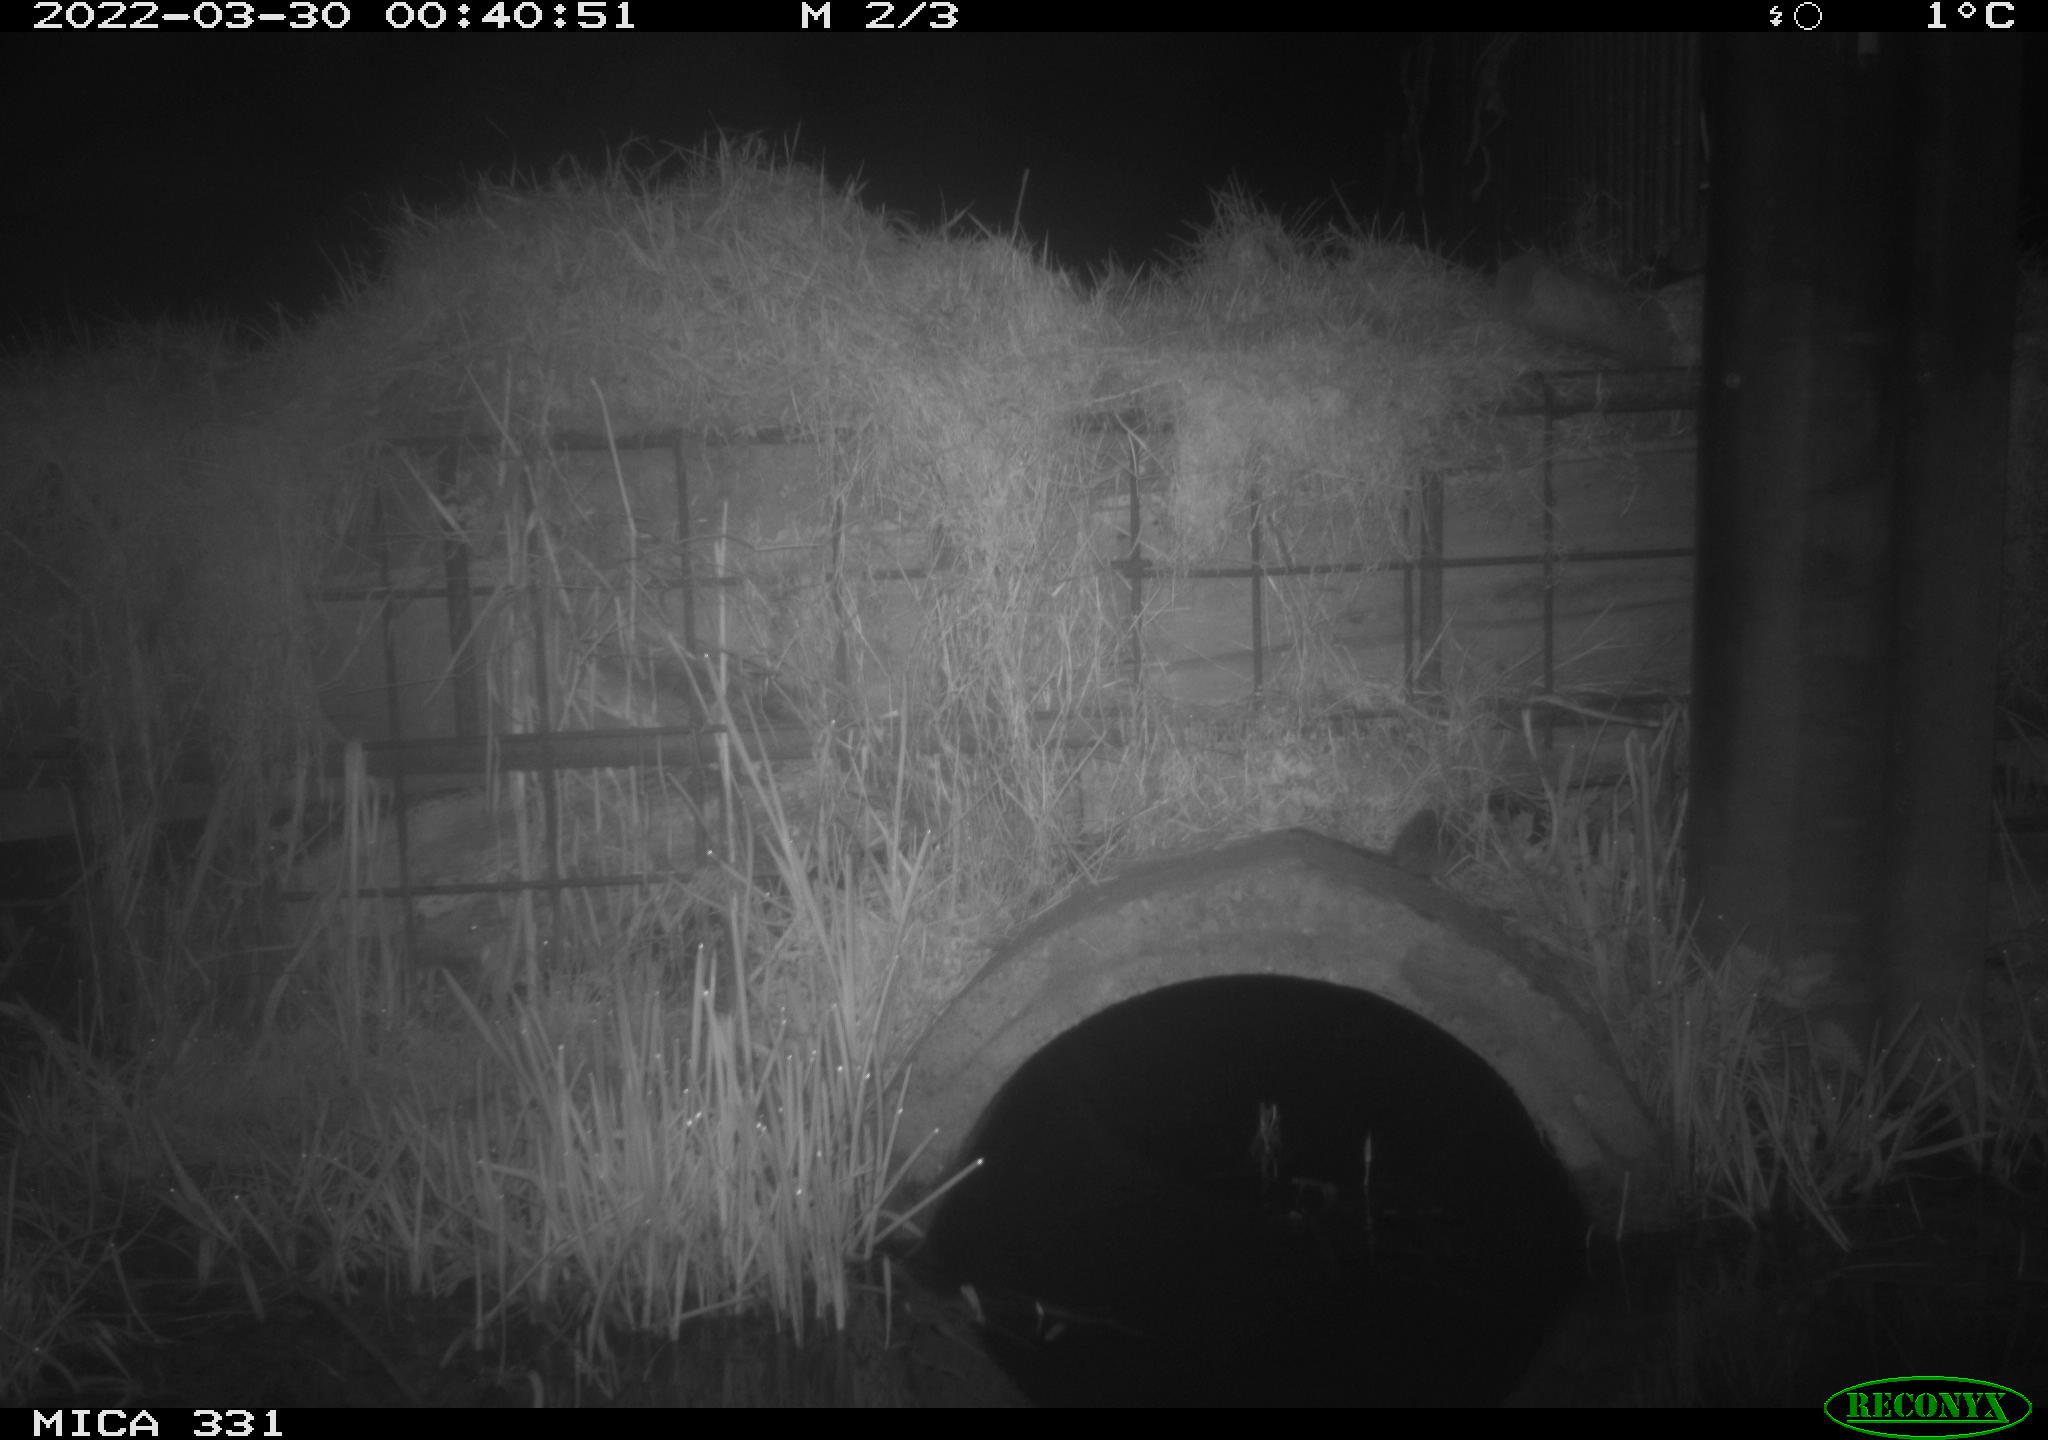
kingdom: Animalia
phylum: Chordata
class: Mammalia
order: Rodentia
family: Muridae
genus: Rattus
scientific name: Rattus norvegicus
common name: Brown rat
